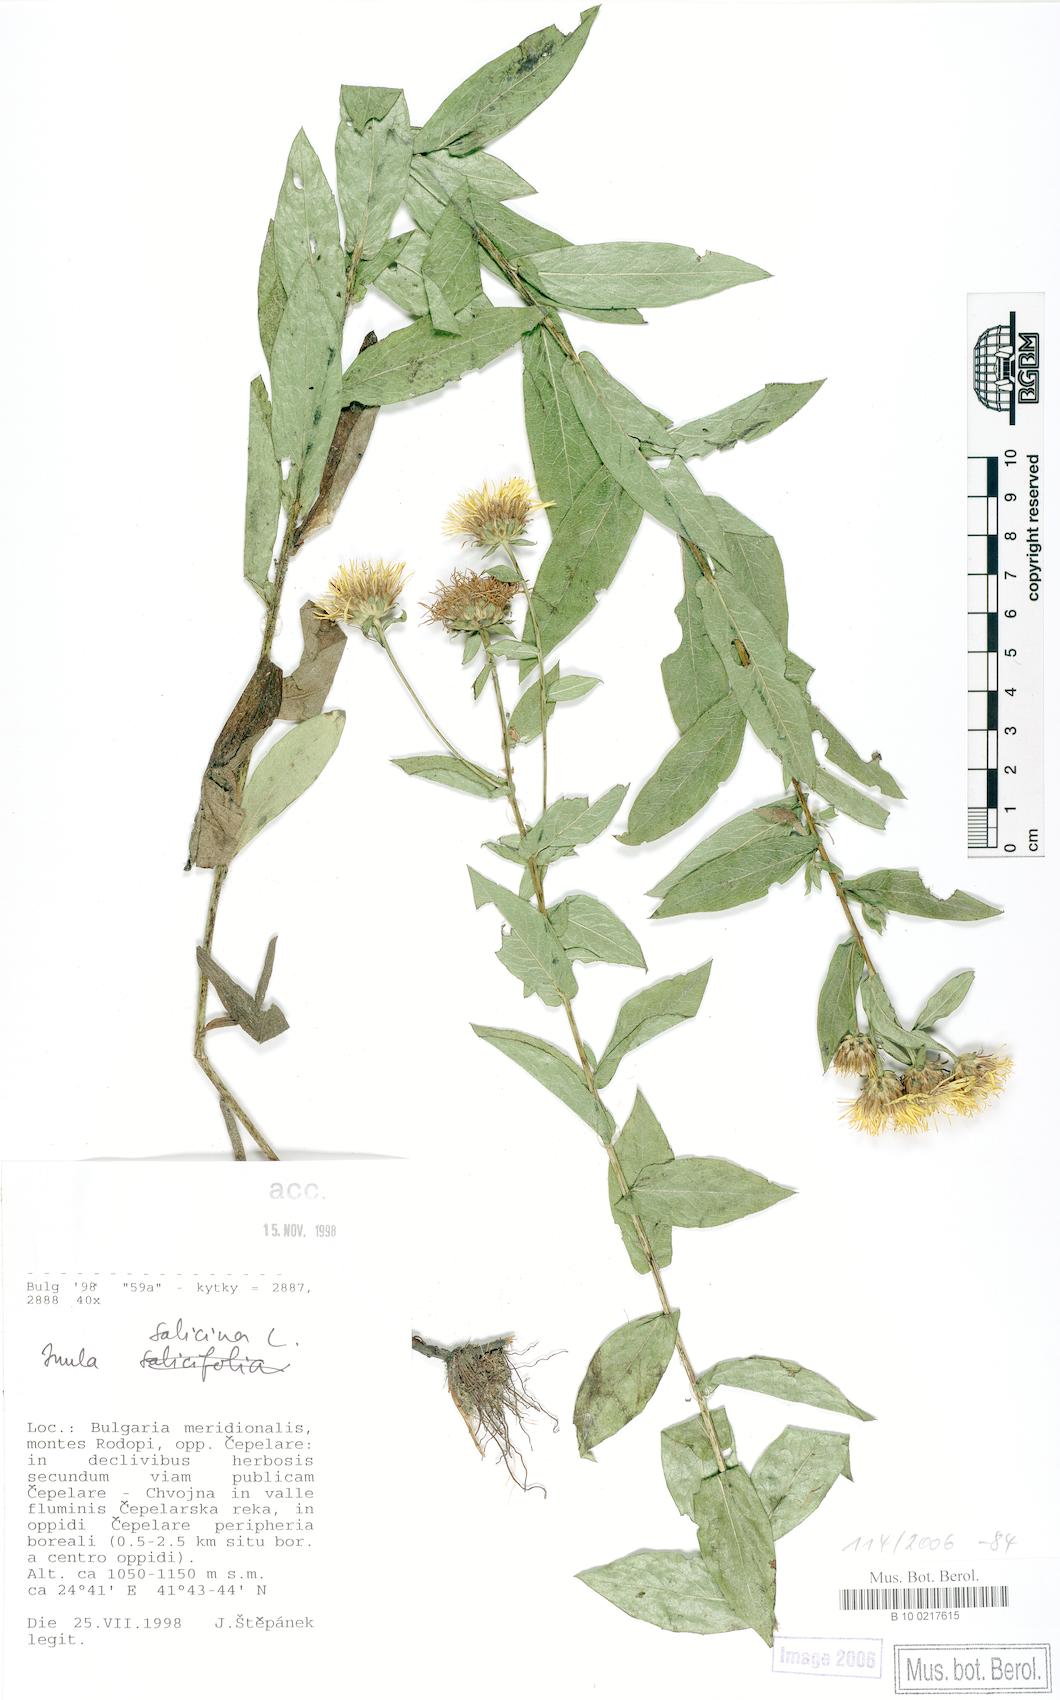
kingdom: Plantae
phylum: Tracheophyta
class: Magnoliopsida
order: Asterales
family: Asteraceae
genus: Pentanema
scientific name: Pentanema salicinum
